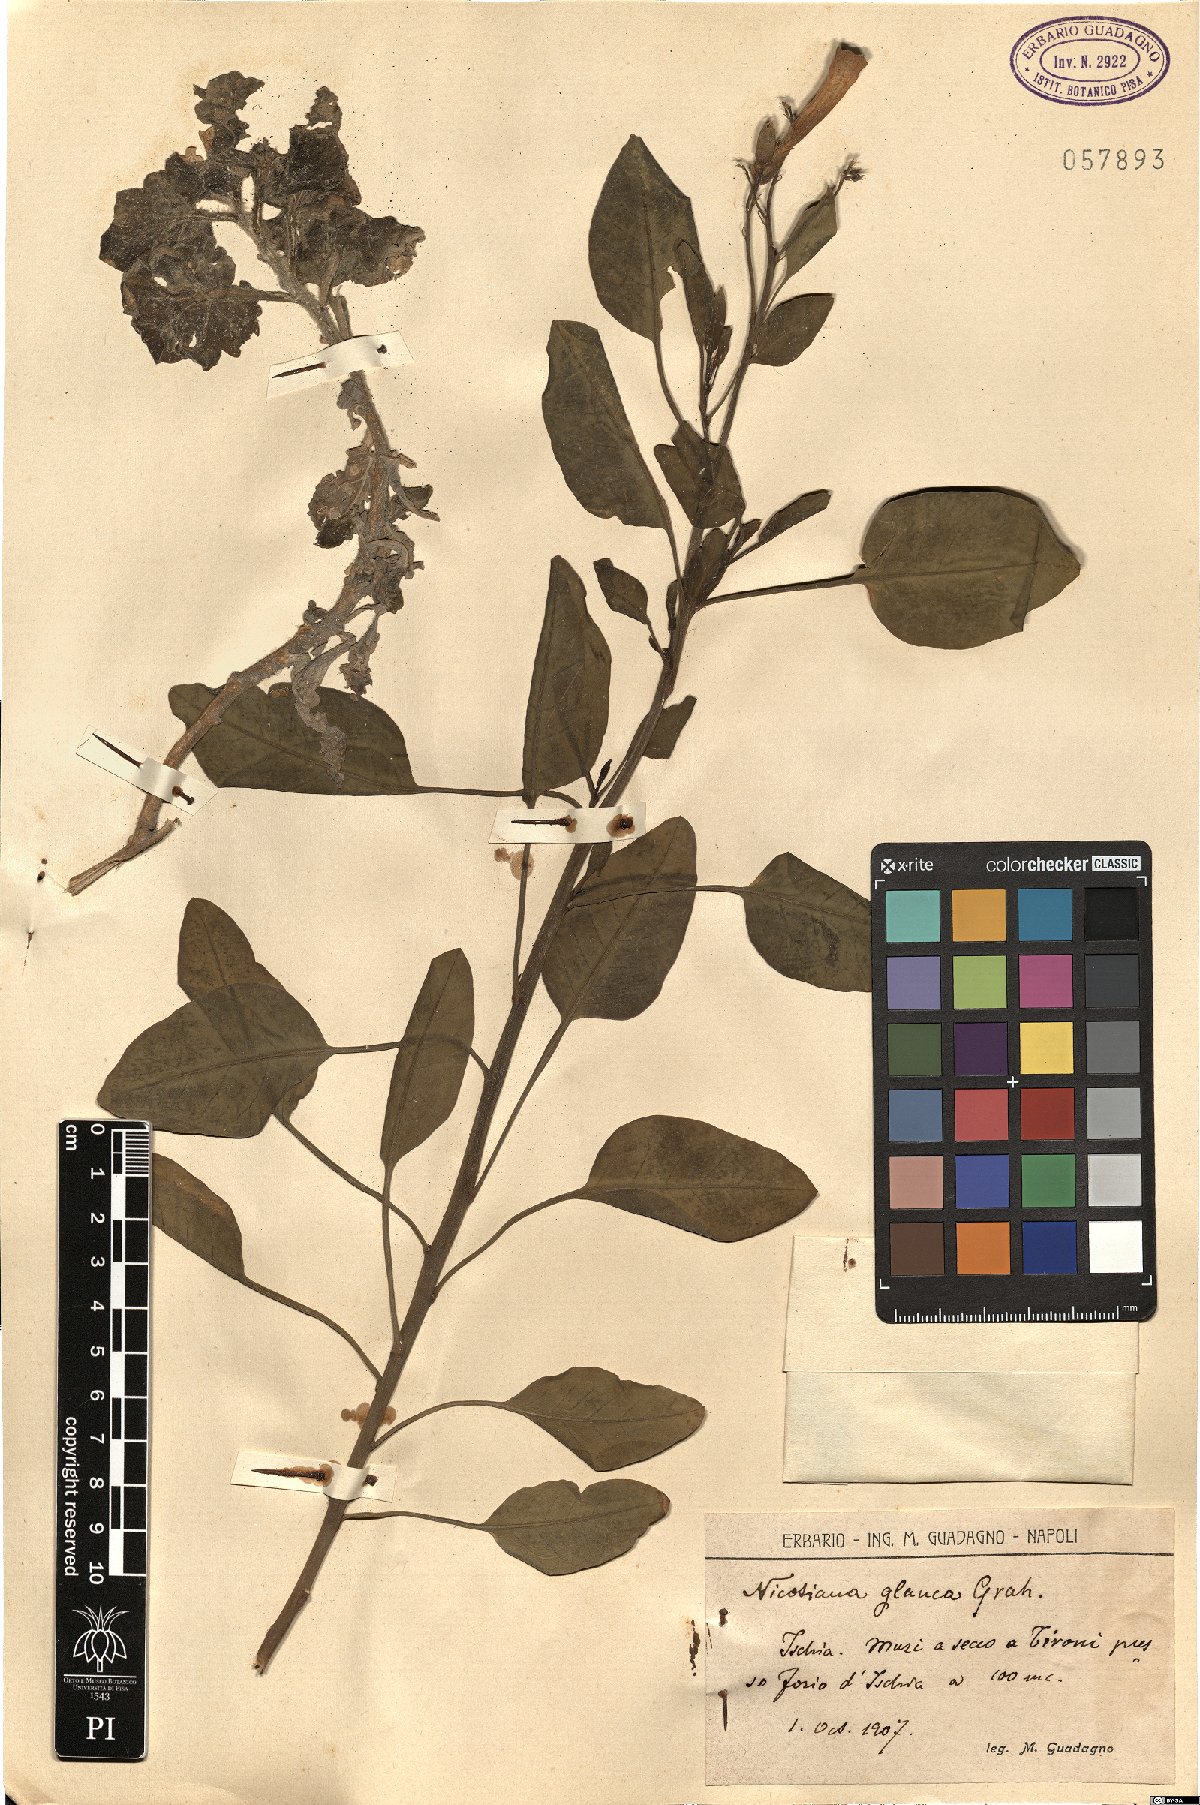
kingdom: Plantae
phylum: Tracheophyta
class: Magnoliopsida
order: Solanales
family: Solanaceae
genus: Nicotiana
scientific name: Nicotiana glauca
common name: Tree tobacco
